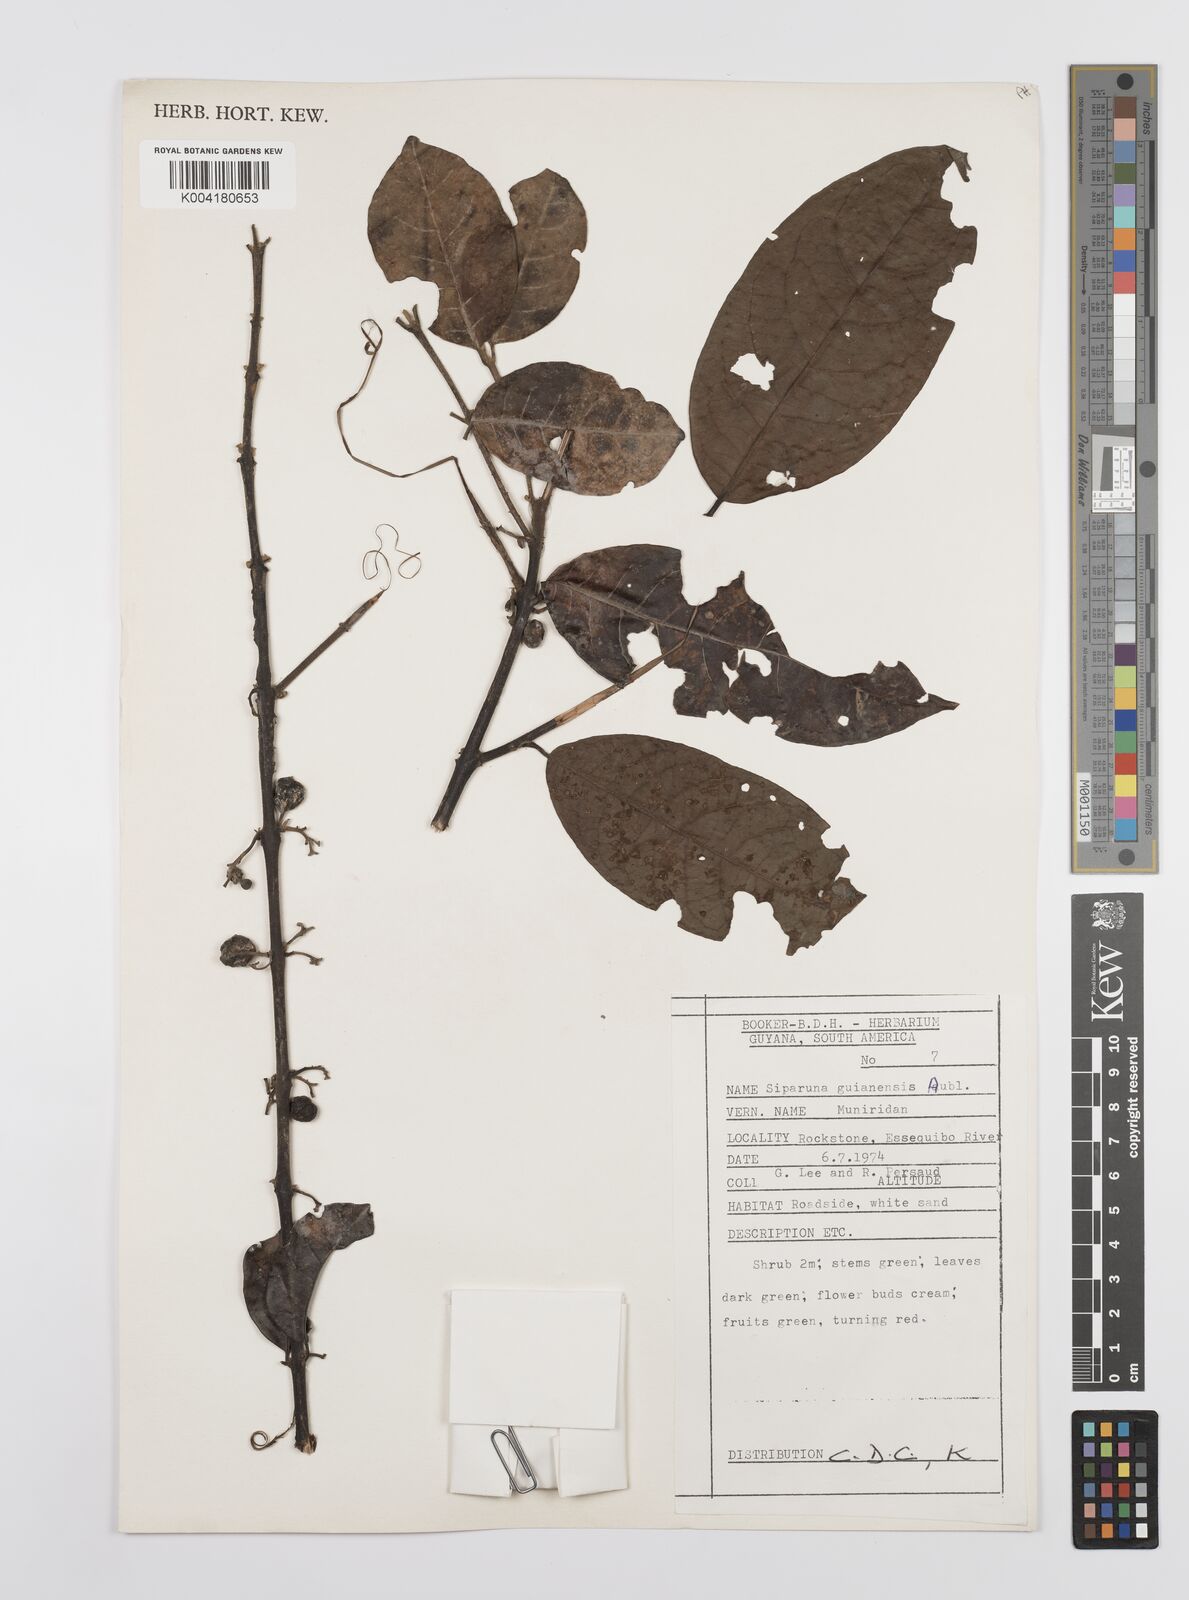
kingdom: Plantae
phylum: Tracheophyta
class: Magnoliopsida
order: Laurales
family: Siparunaceae
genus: Siparuna
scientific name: Siparuna guianensis
